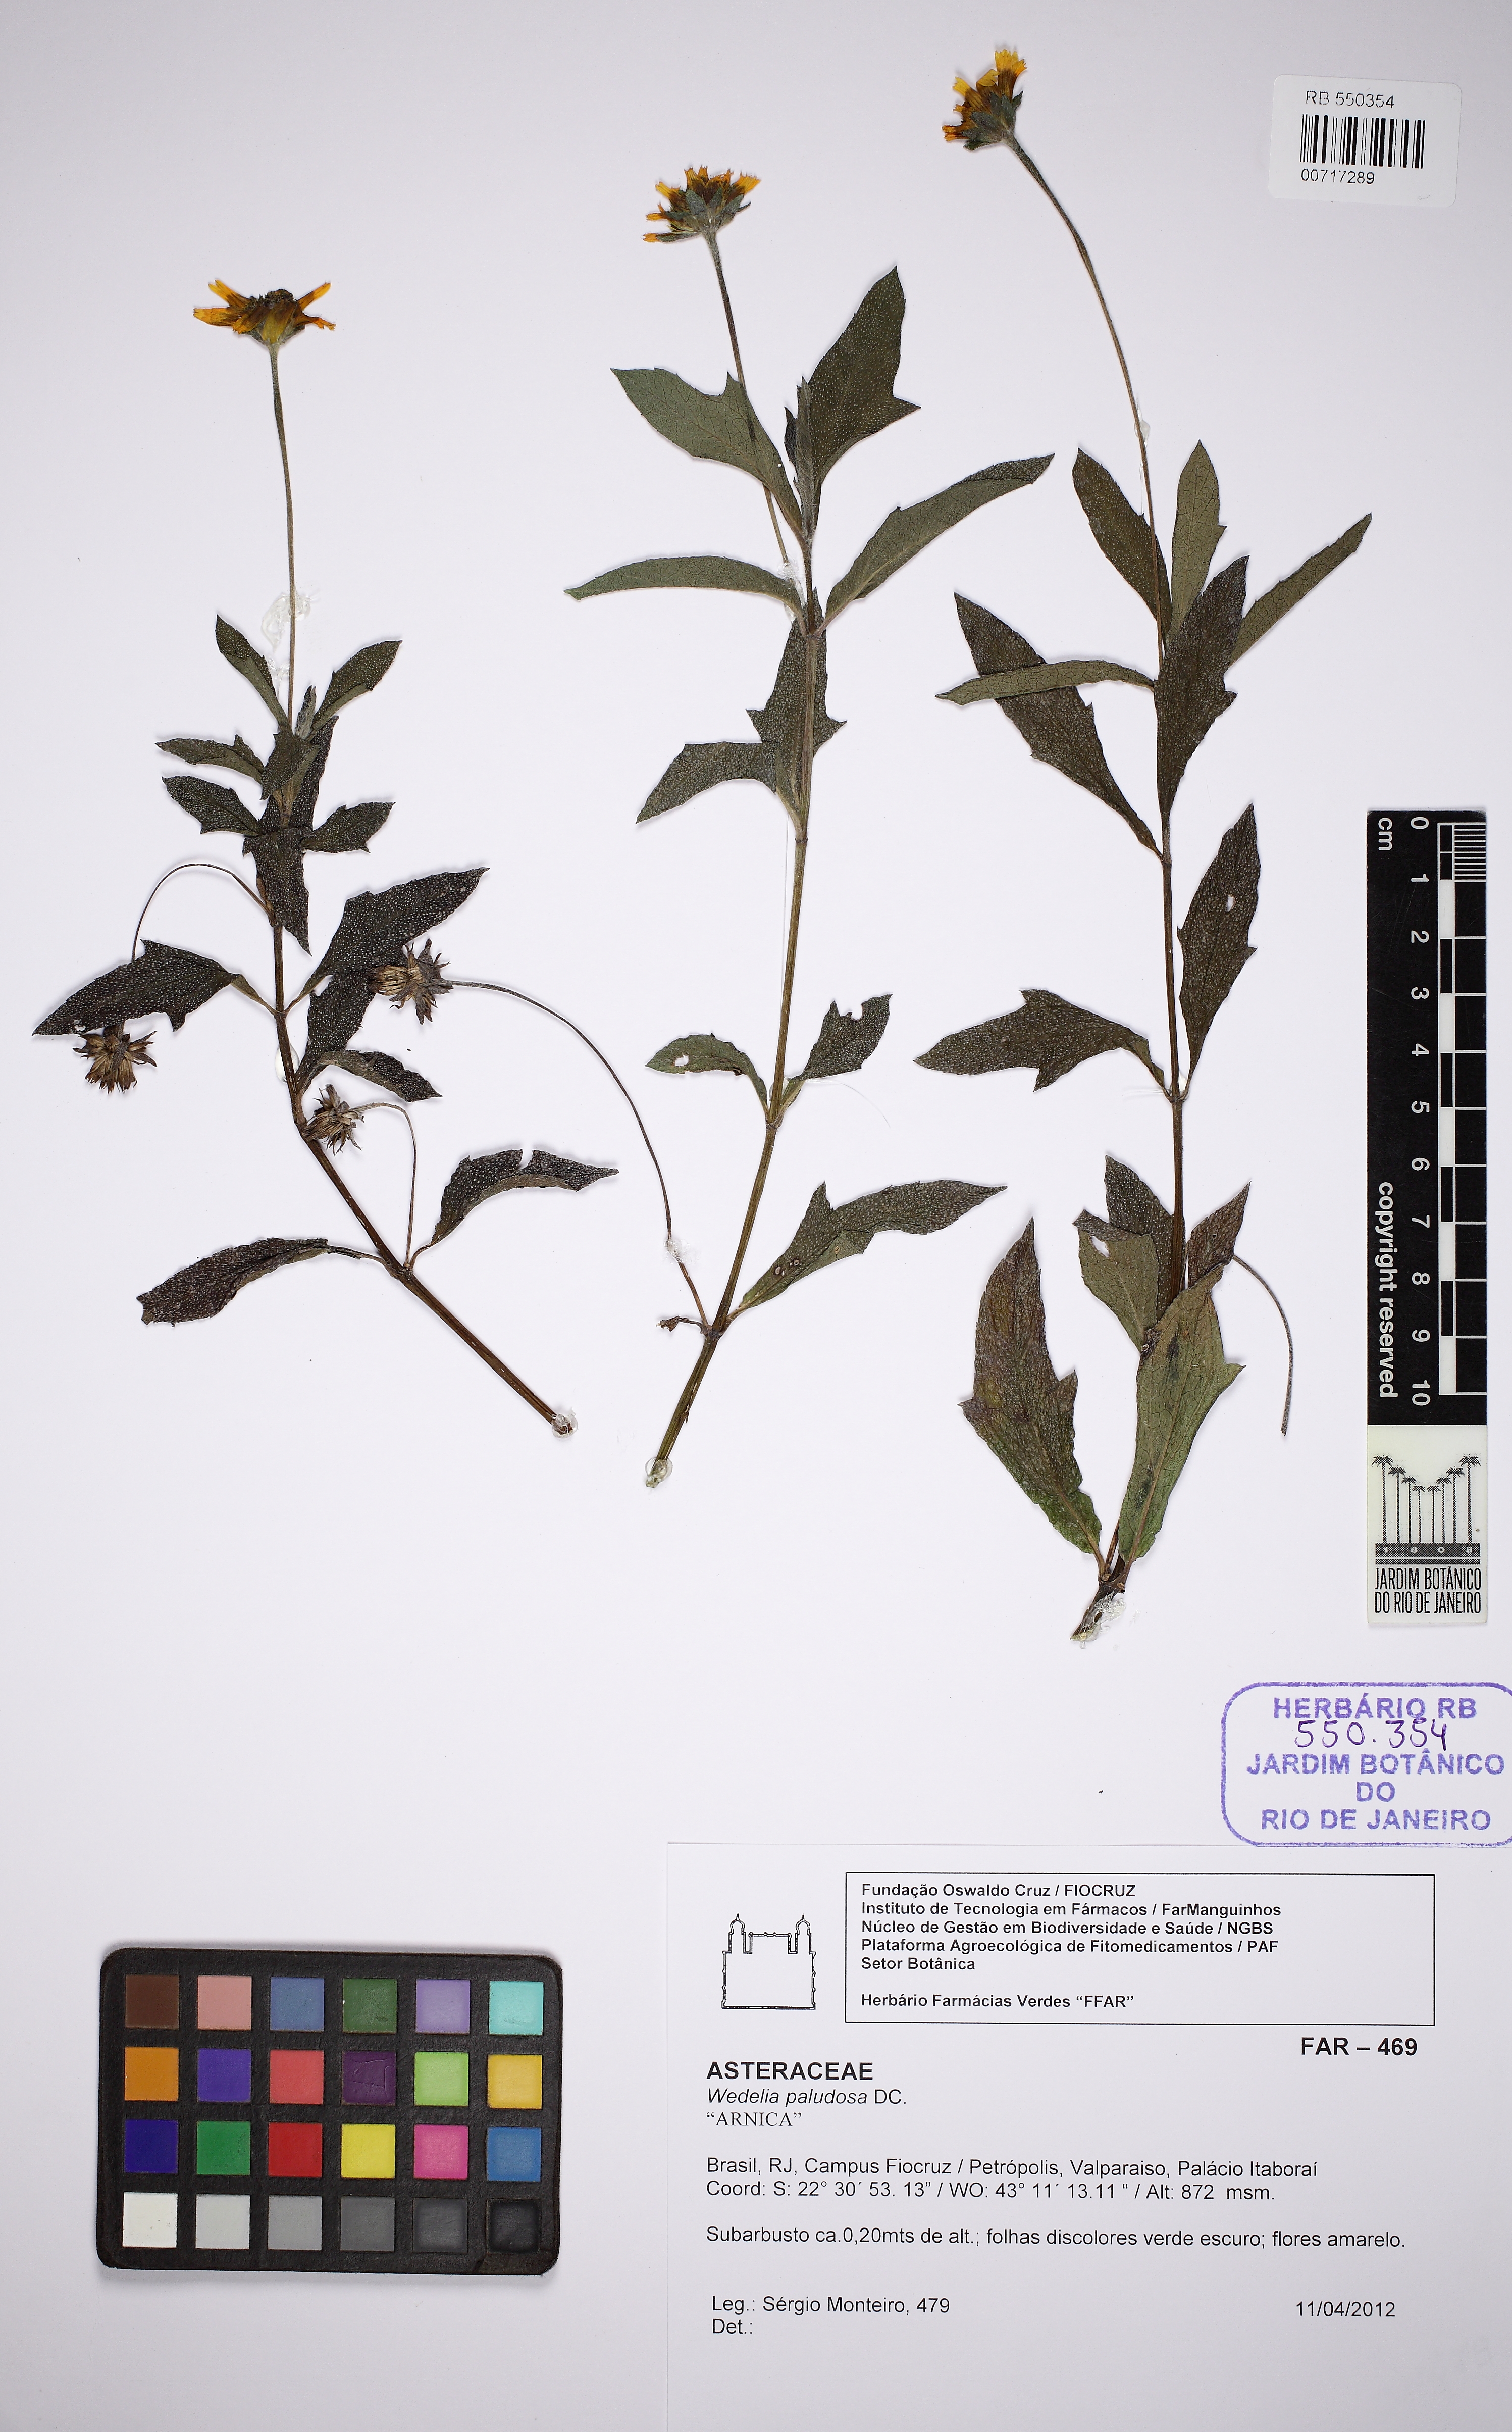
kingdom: Plantae
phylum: Tracheophyta
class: Magnoliopsida
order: Asterales
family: Asteraceae
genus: Sphagneticola
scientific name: Sphagneticola trilobata
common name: Bay biscayne creeping-oxeye
